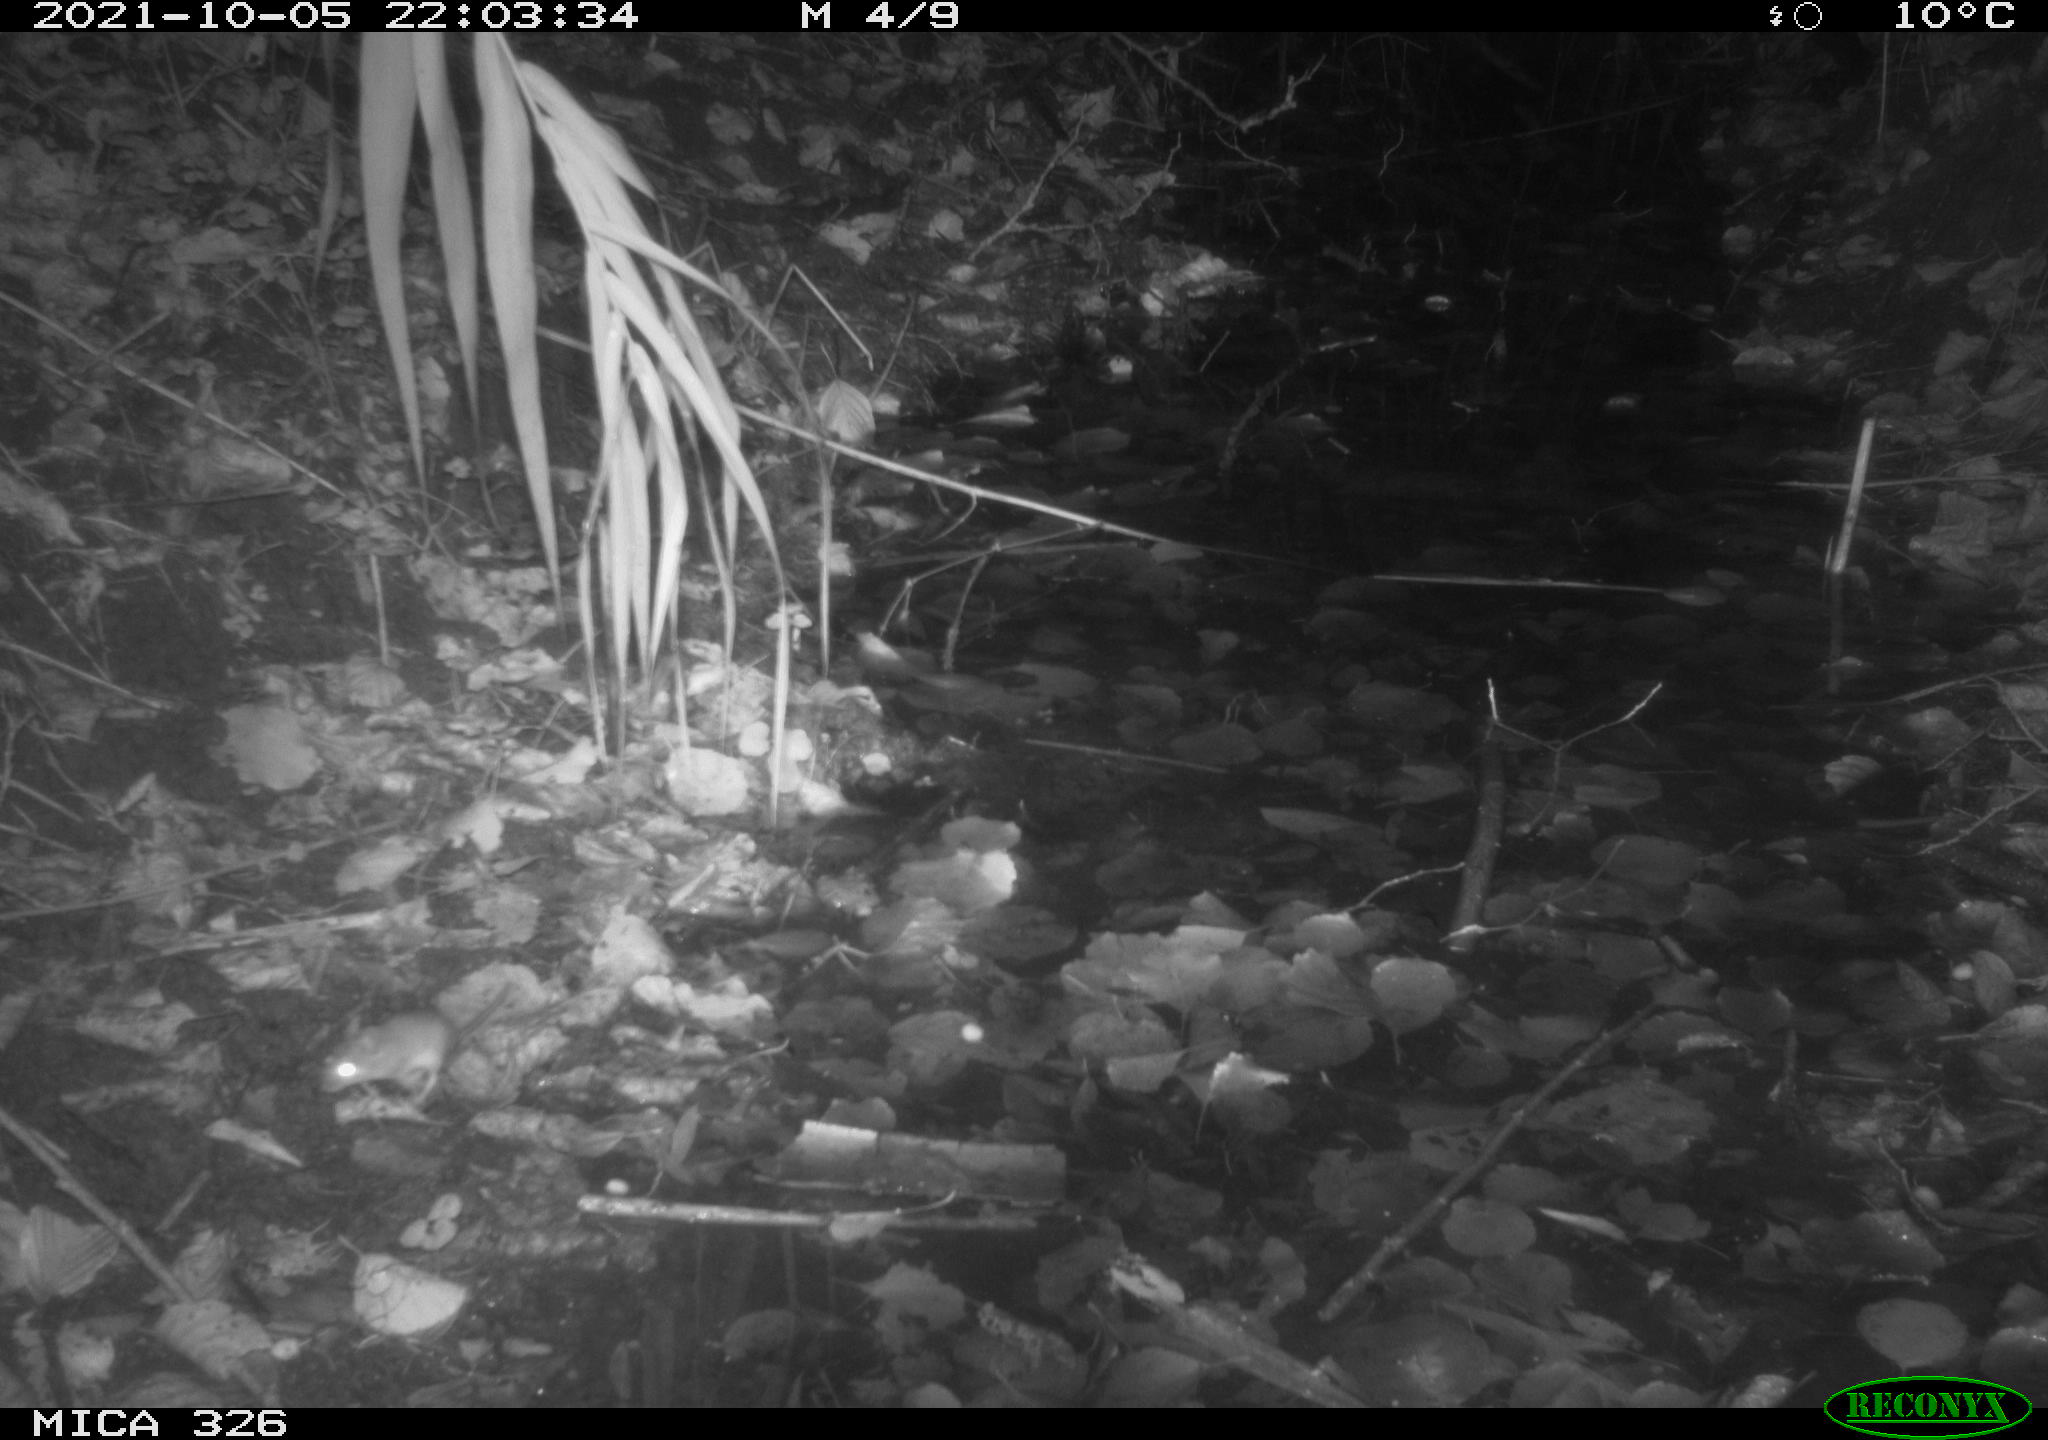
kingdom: Animalia
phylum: Chordata
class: Mammalia
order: Rodentia
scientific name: Rodentia
